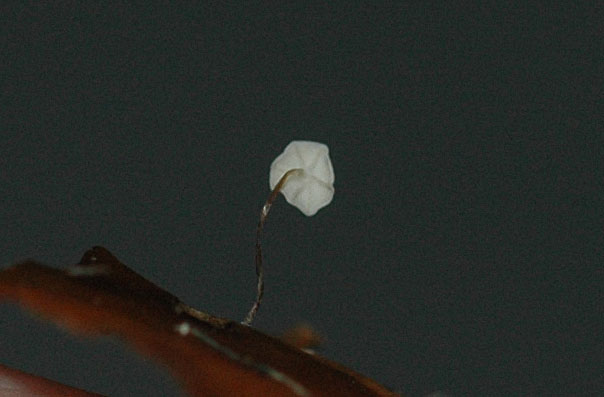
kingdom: Fungi
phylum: Basidiomycota
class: Agaricomycetes
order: Agaricales
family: Marasmiaceae
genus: Marasmius
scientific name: Marasmius epiphylloides
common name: vedbend-bruskhat
